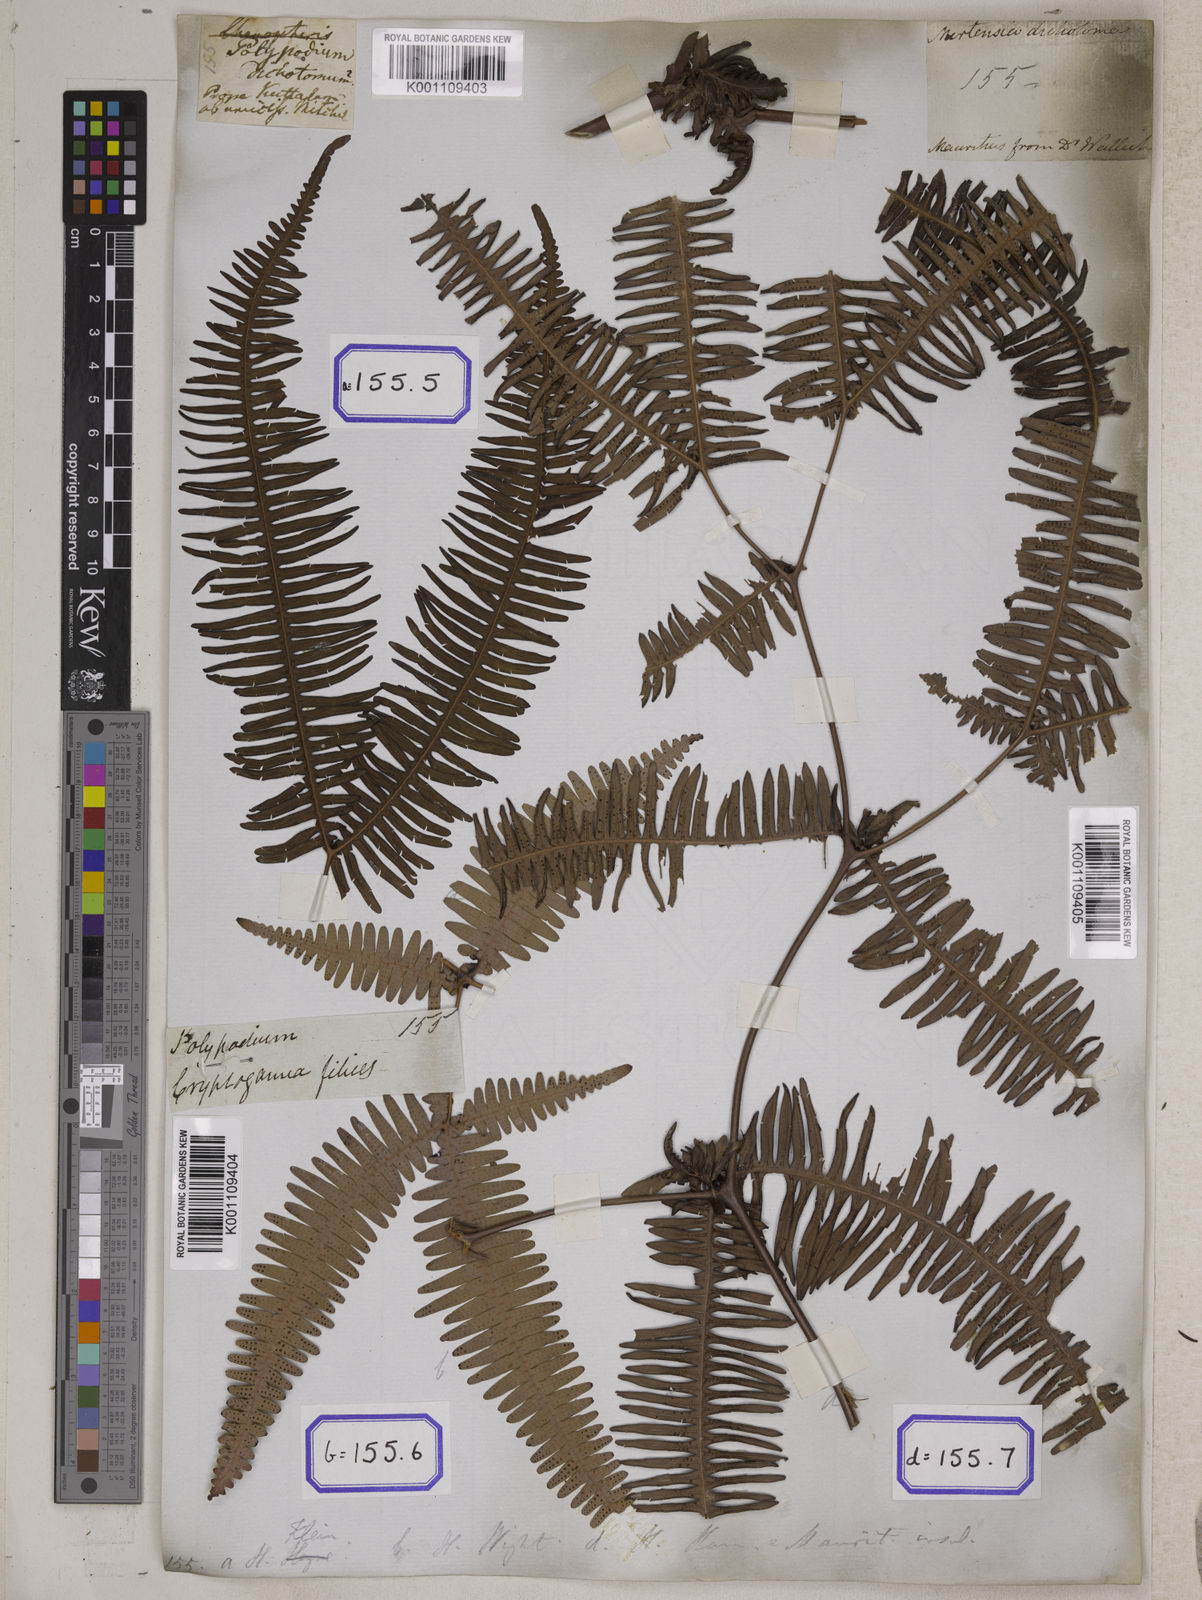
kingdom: Plantae
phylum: Tracheophyta
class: Polypodiopsida
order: Gleicheniales
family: Gleicheniaceae
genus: Dicranopteris
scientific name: Dicranopteris linearis
